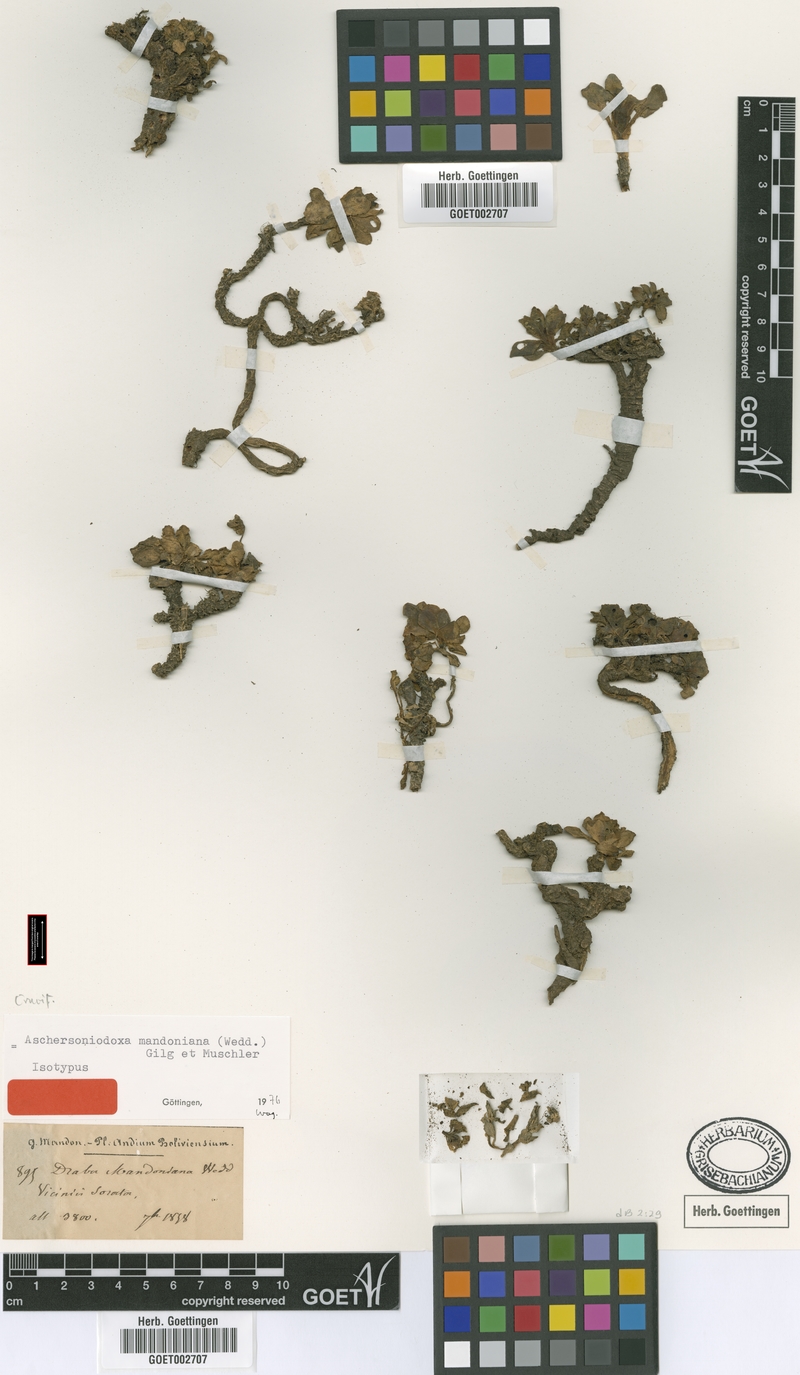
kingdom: Plantae
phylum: Tracheophyta
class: Magnoliopsida
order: Brassicales
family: Brassicaceae
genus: Aschersoniodoxa
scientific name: Aschersoniodoxa mandoniana
